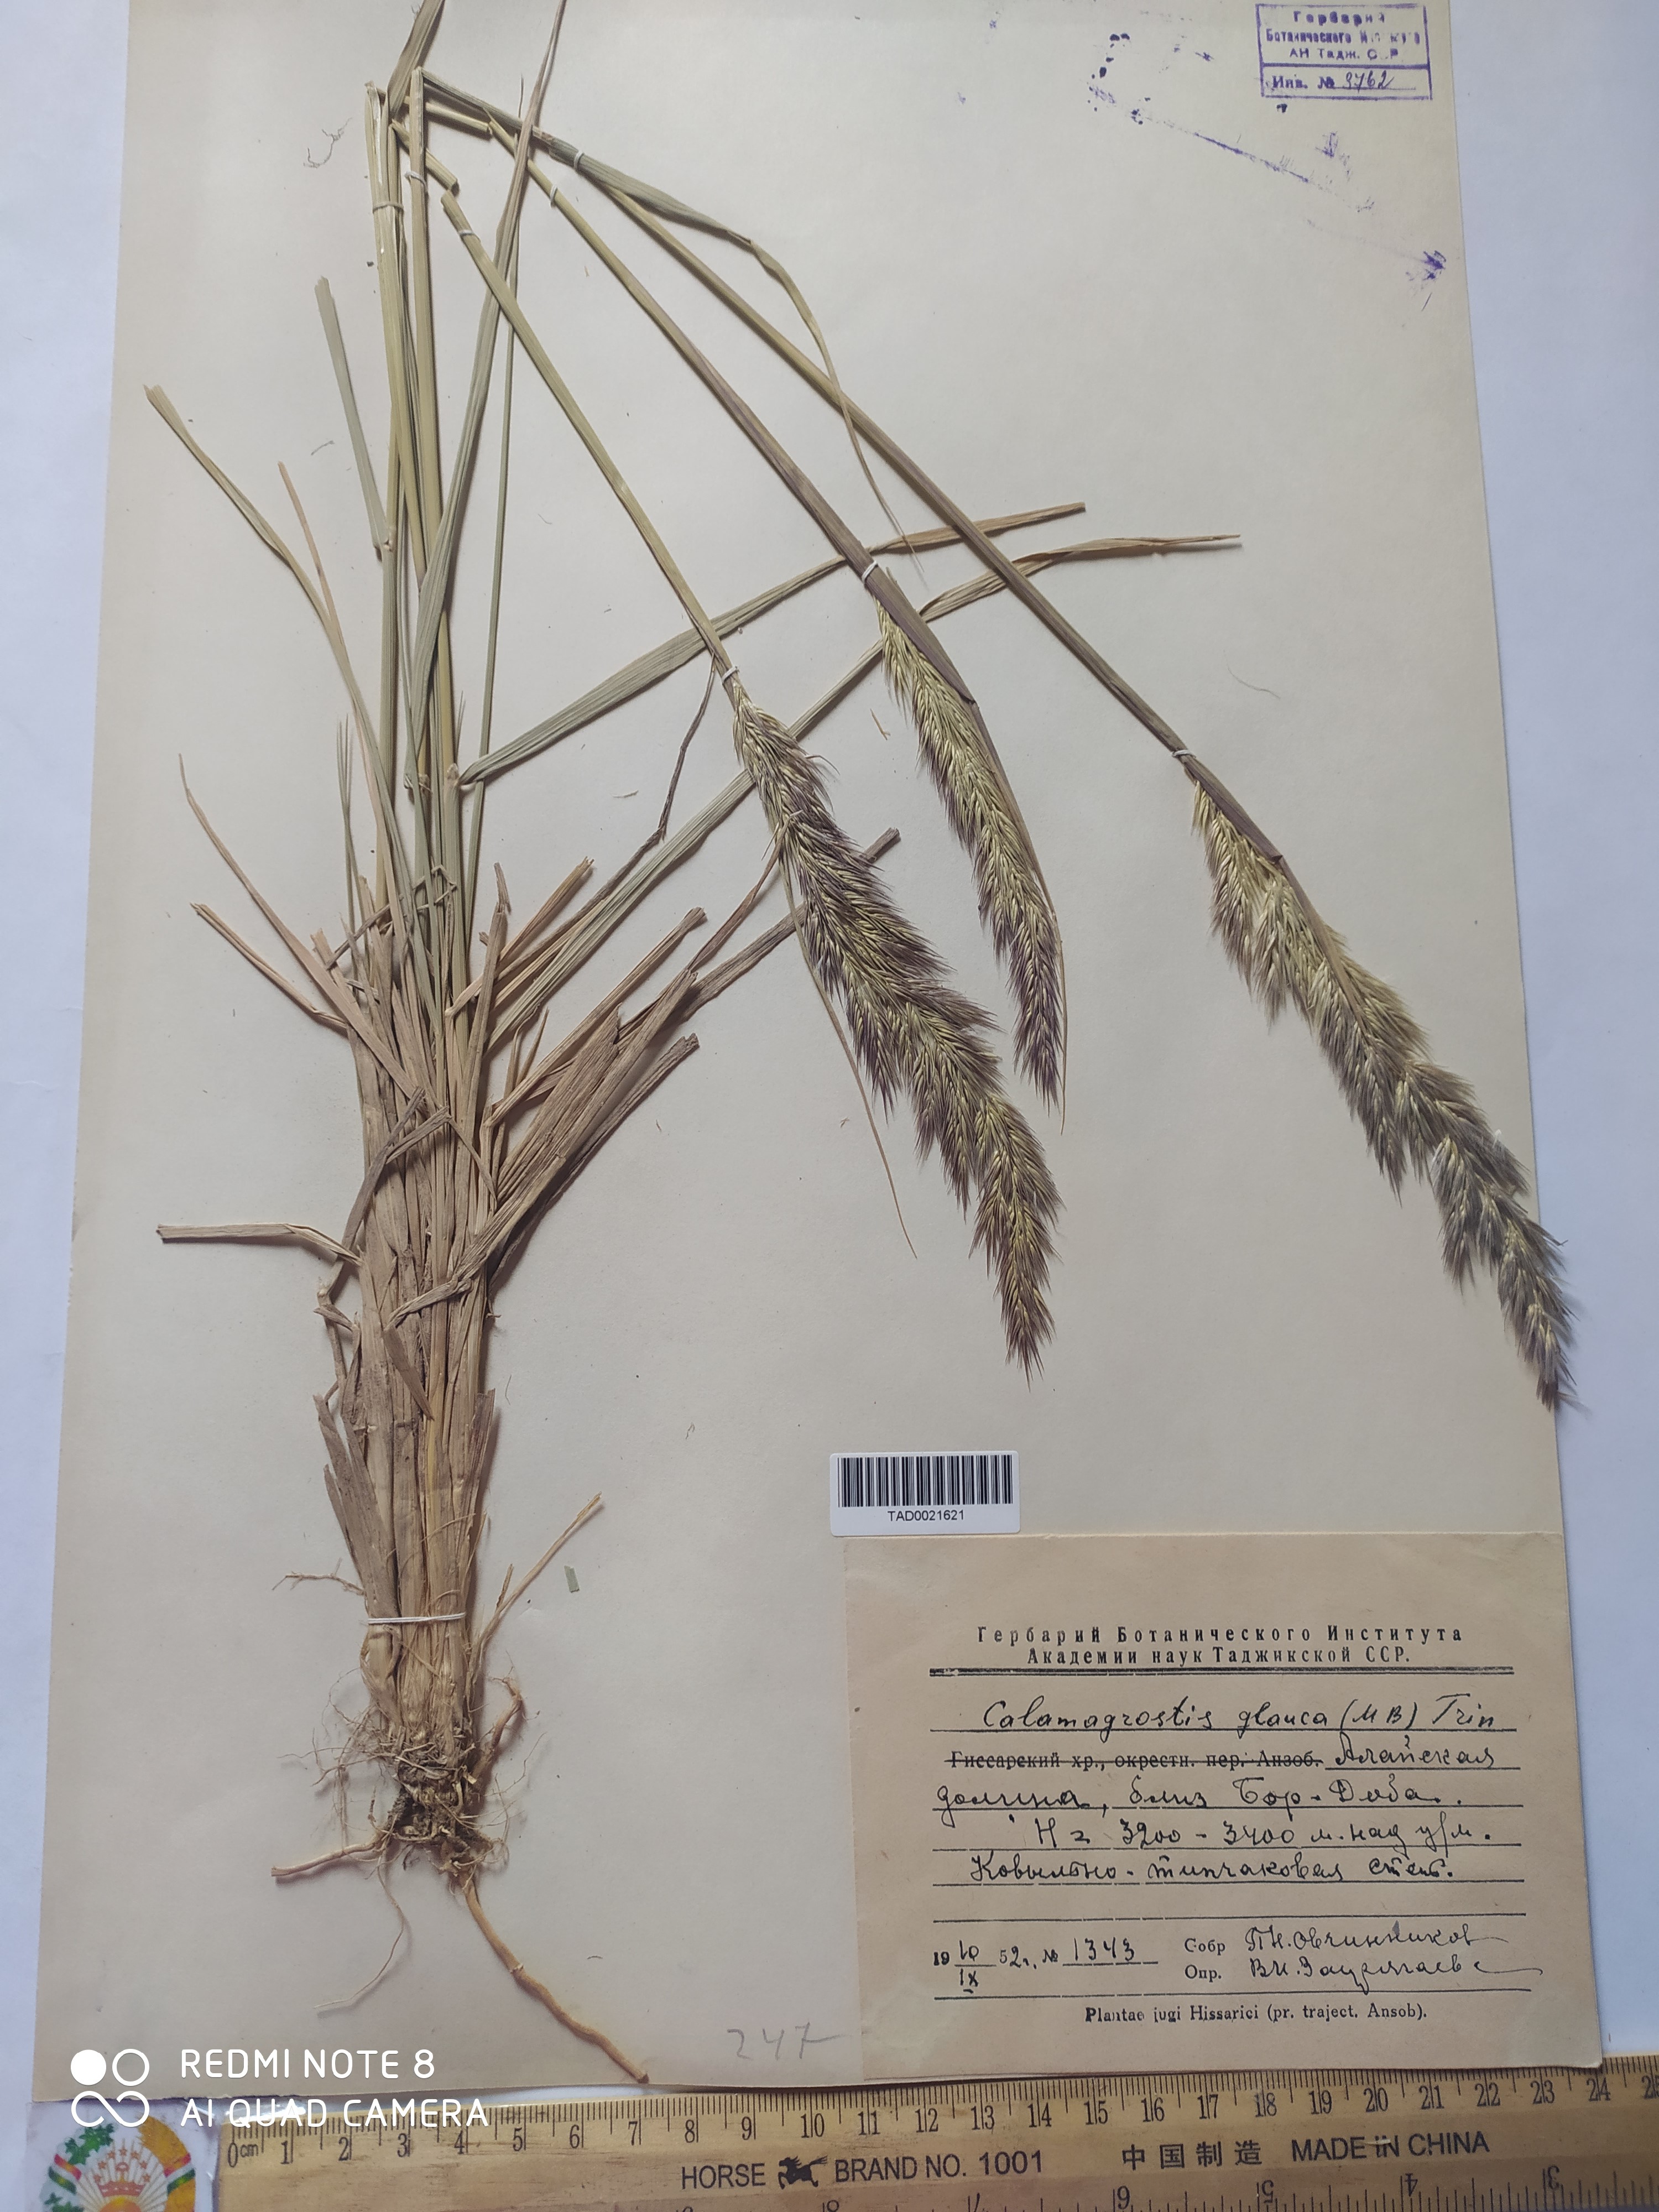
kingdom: Plantae
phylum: Tracheophyta
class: Liliopsida
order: Poales
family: Poaceae
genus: Calamagrostis
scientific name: Calamagrostis pseudophragmites
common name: Coastal small-reed
